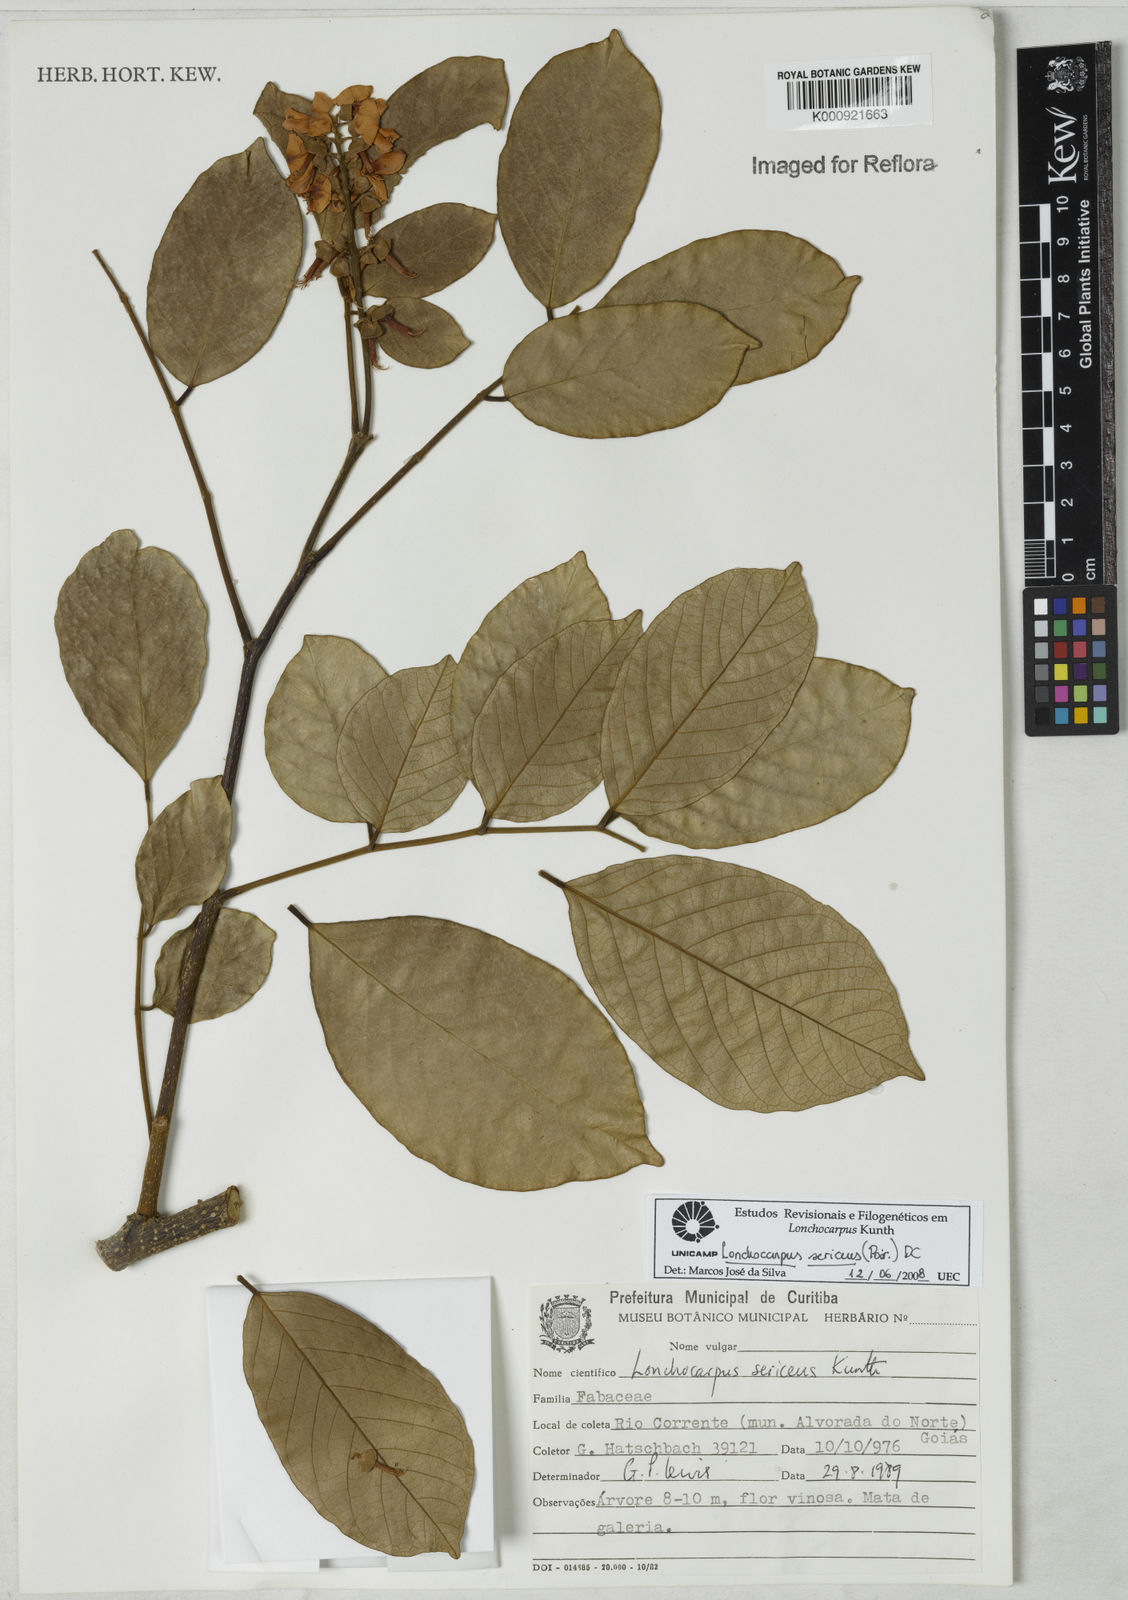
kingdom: Plantae
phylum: Tracheophyta
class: Magnoliopsida
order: Fabales
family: Fabaceae
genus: Lonchocarpus
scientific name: Lonchocarpus sericeus
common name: Savonette
